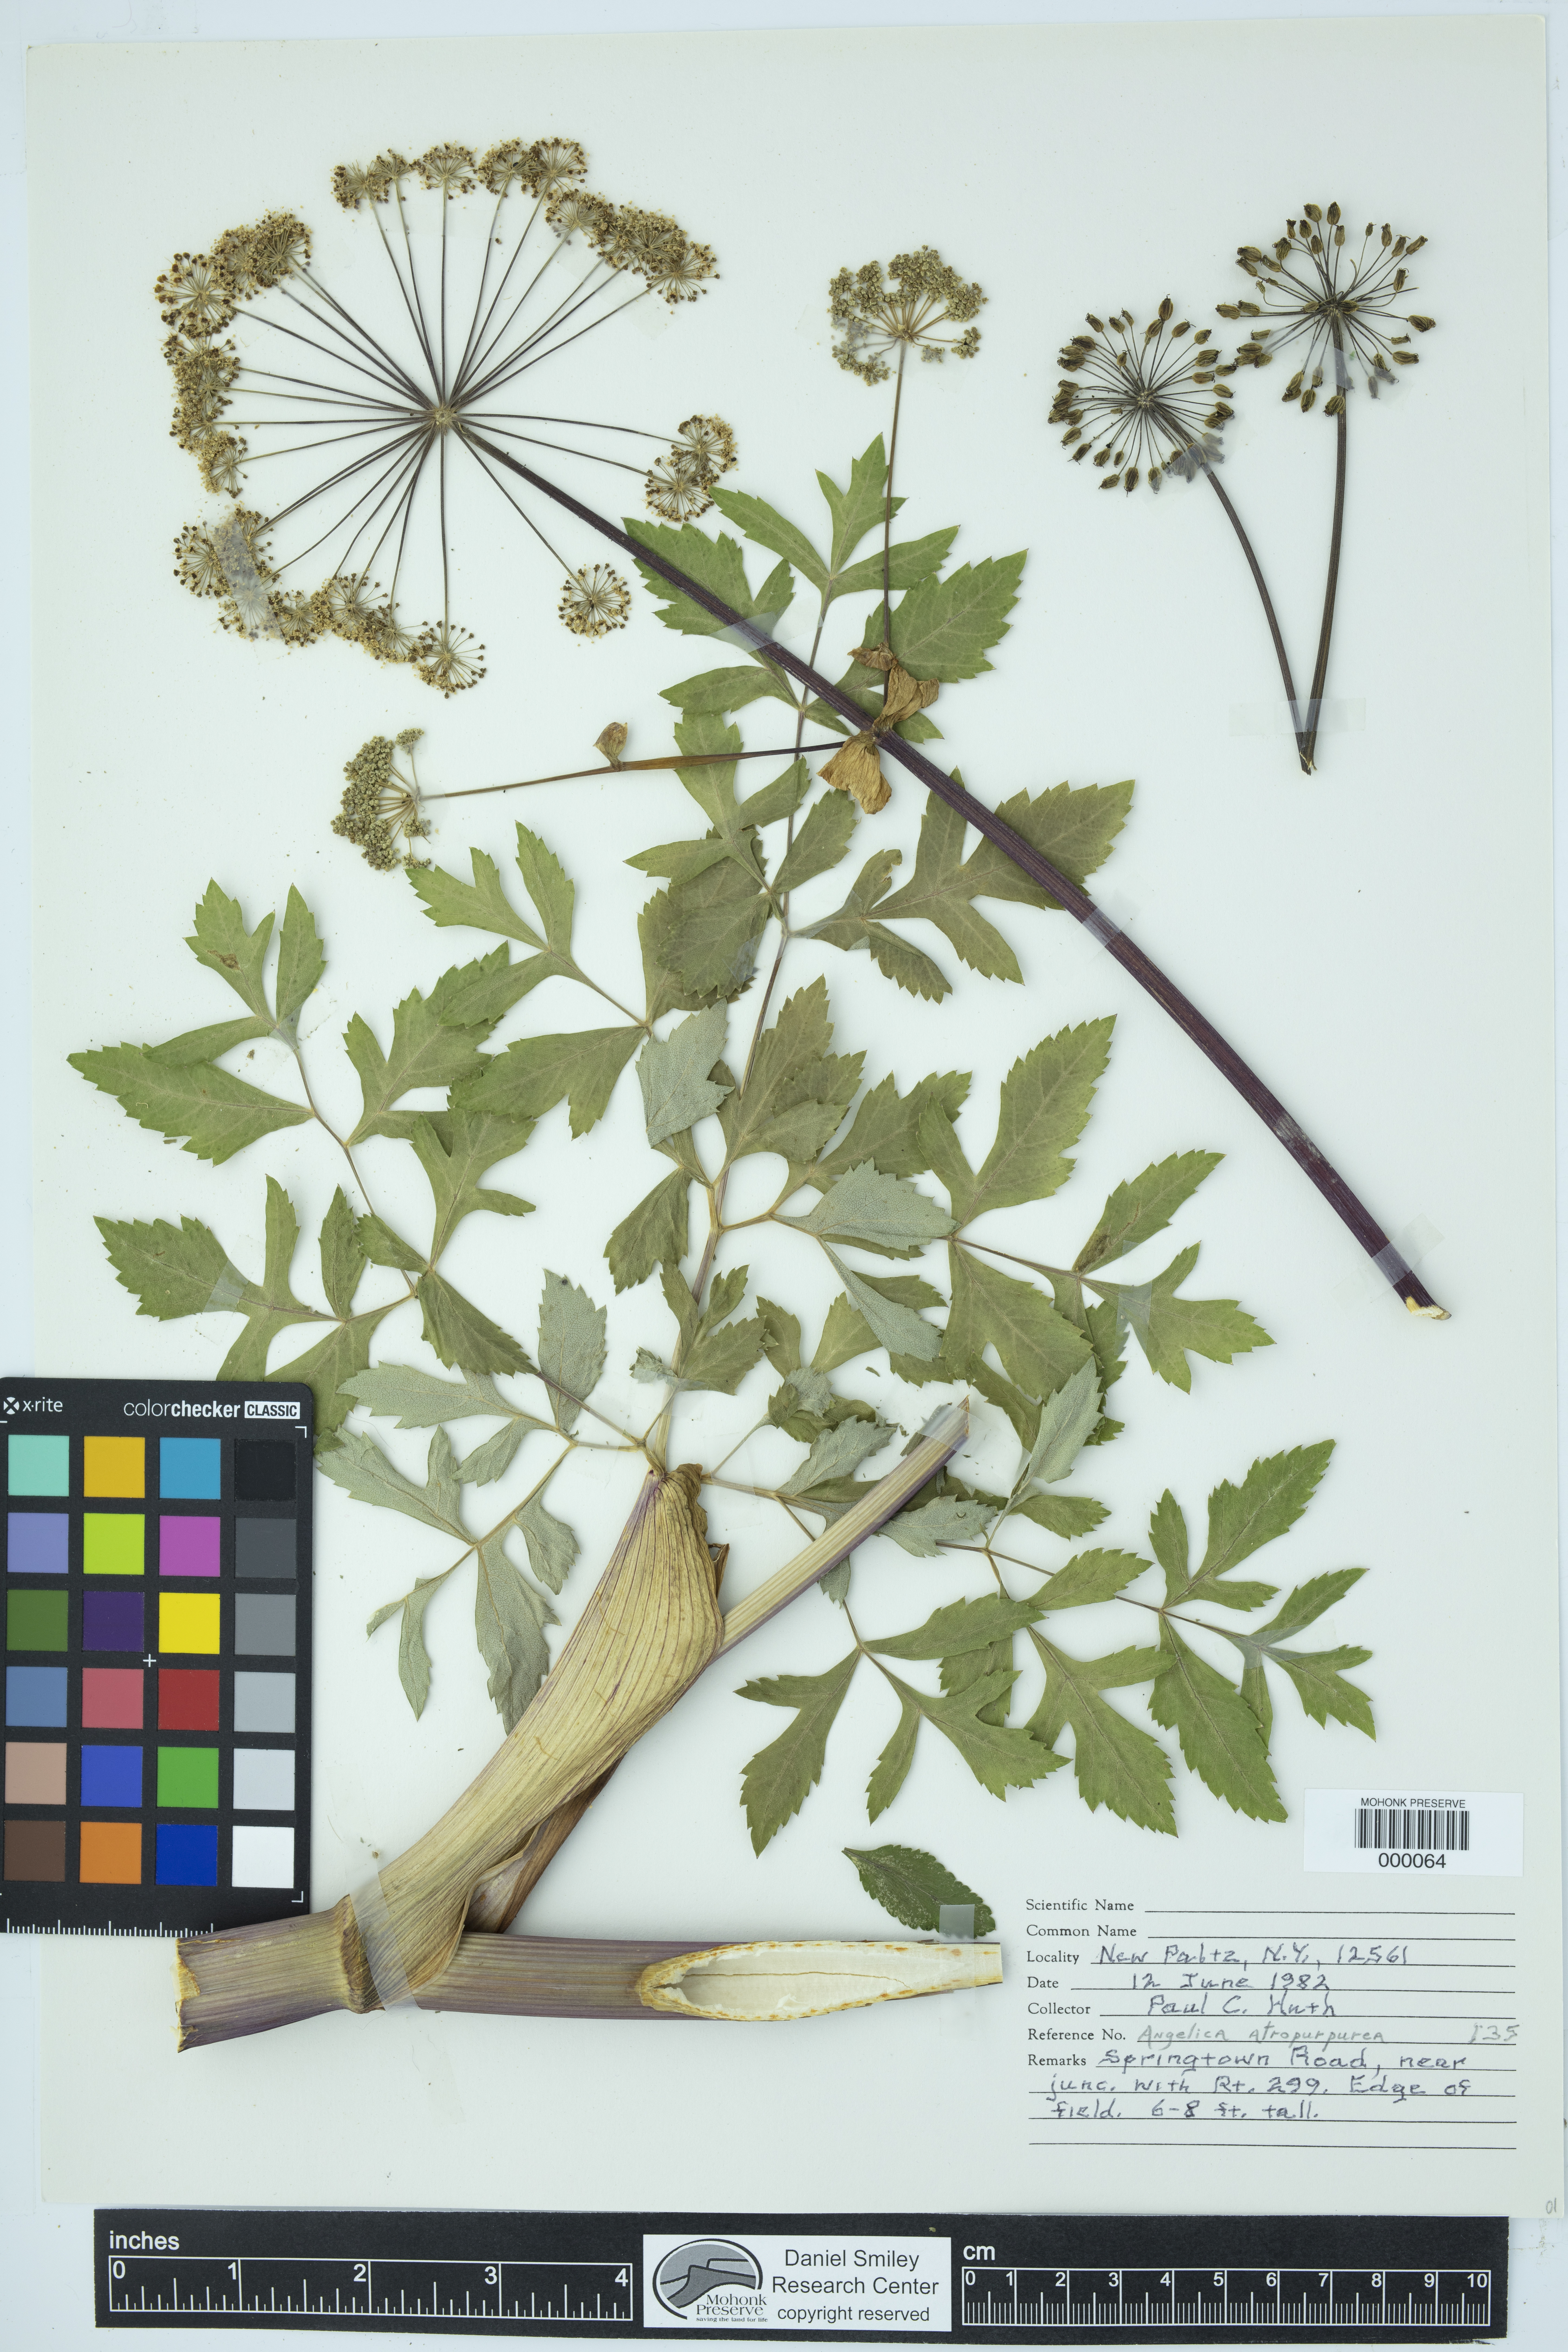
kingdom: Plantae
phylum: Tracheophyta
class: Magnoliopsida
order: Apiales
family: Apiaceae
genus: Angelica
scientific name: Angelica atropurpurea
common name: Great angelica
